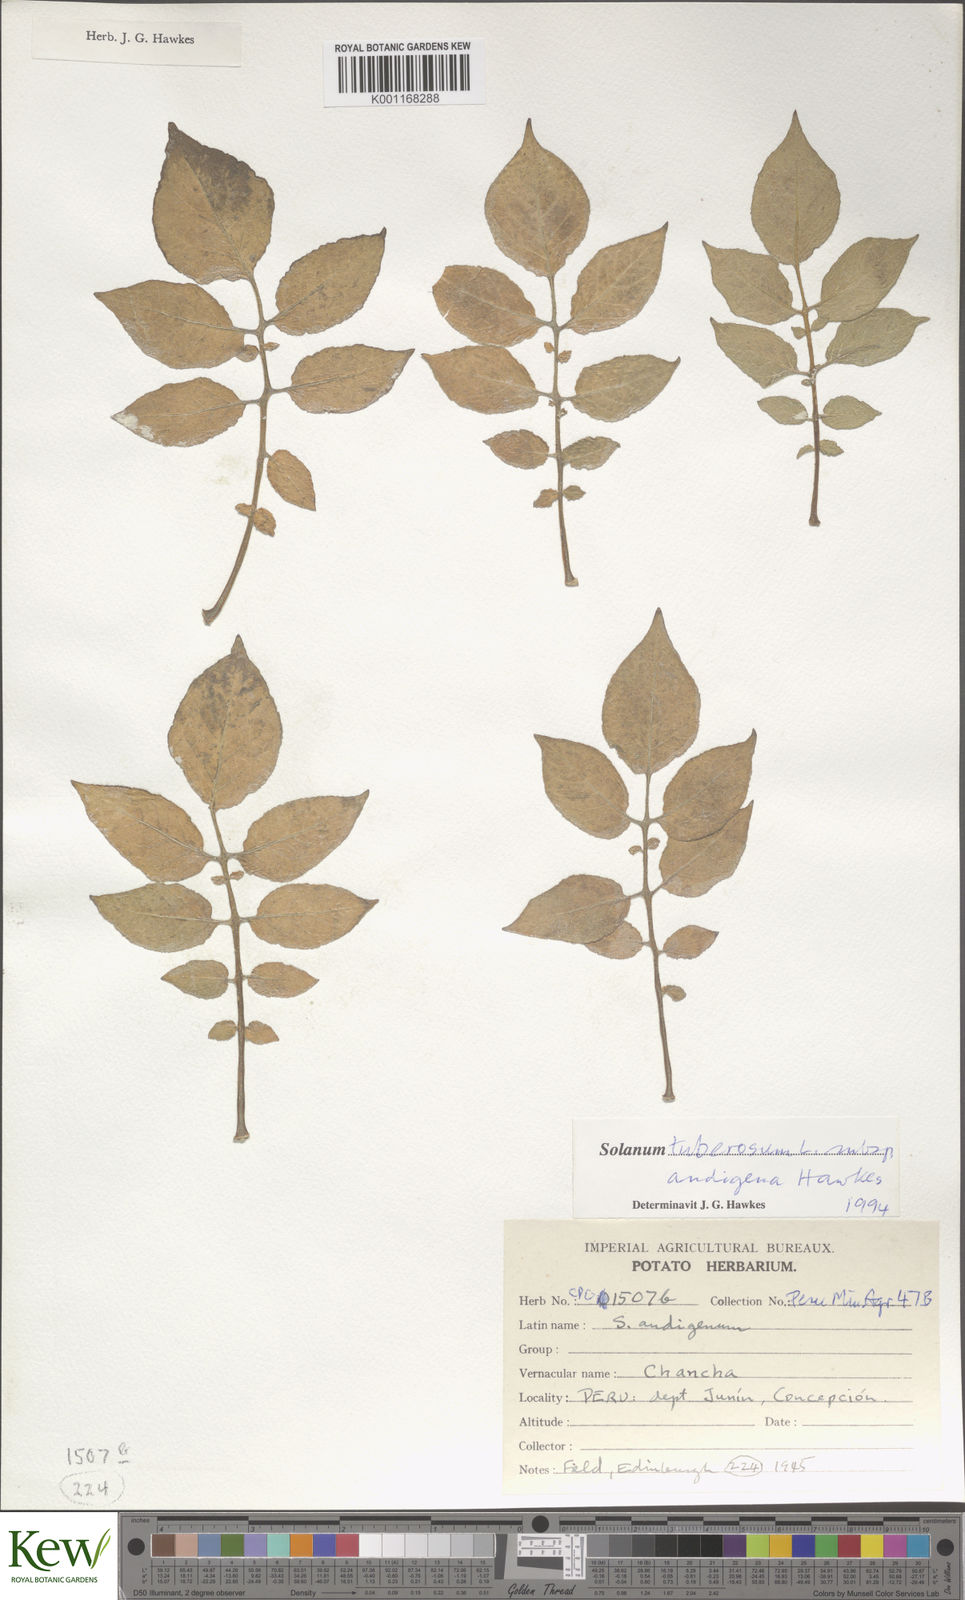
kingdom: Plantae
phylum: Tracheophyta
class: Magnoliopsida
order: Solanales
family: Solanaceae
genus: Solanum
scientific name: Solanum tuberosum
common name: Potato
